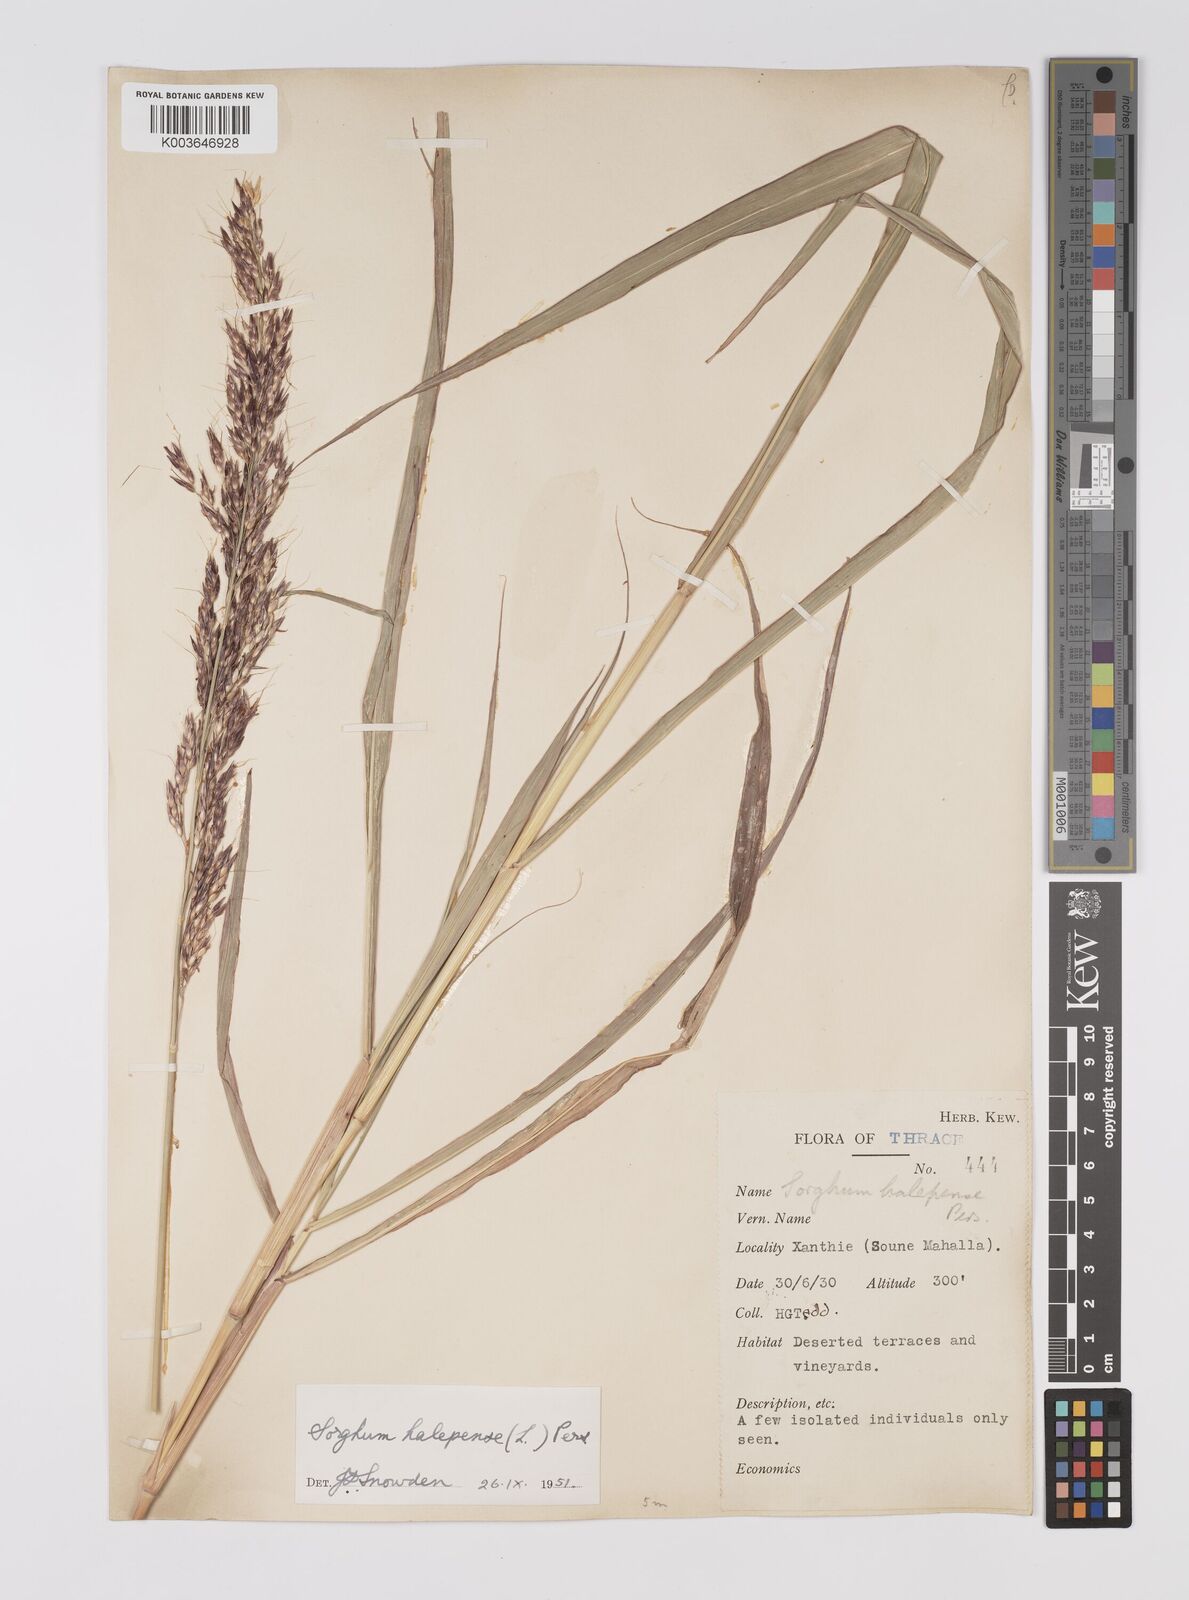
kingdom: Plantae
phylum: Tracheophyta
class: Liliopsida
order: Poales
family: Poaceae
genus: Sorghum
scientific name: Sorghum halepense
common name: Johnson-grass
